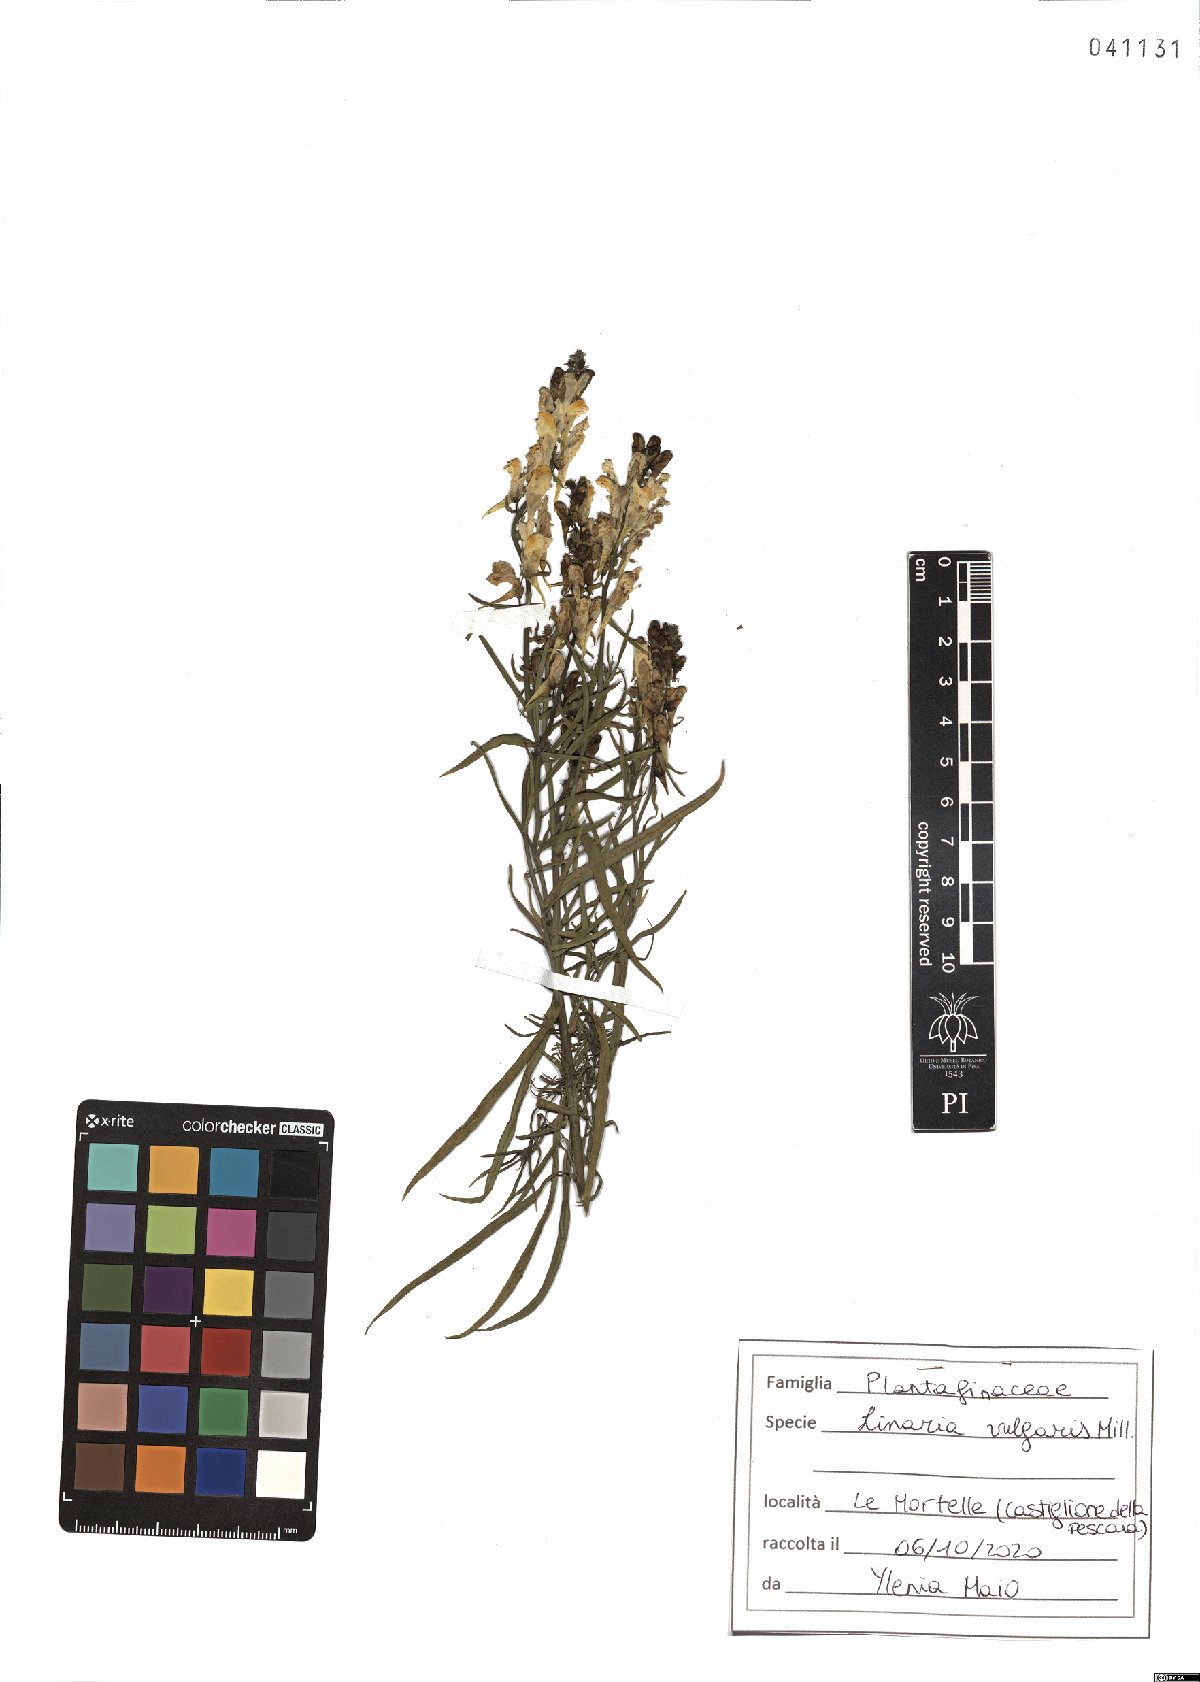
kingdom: Plantae
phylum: Tracheophyta
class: Magnoliopsida
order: Lamiales
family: Plantaginaceae
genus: Linaria
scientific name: Linaria vulgaris
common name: Butter and eggs
